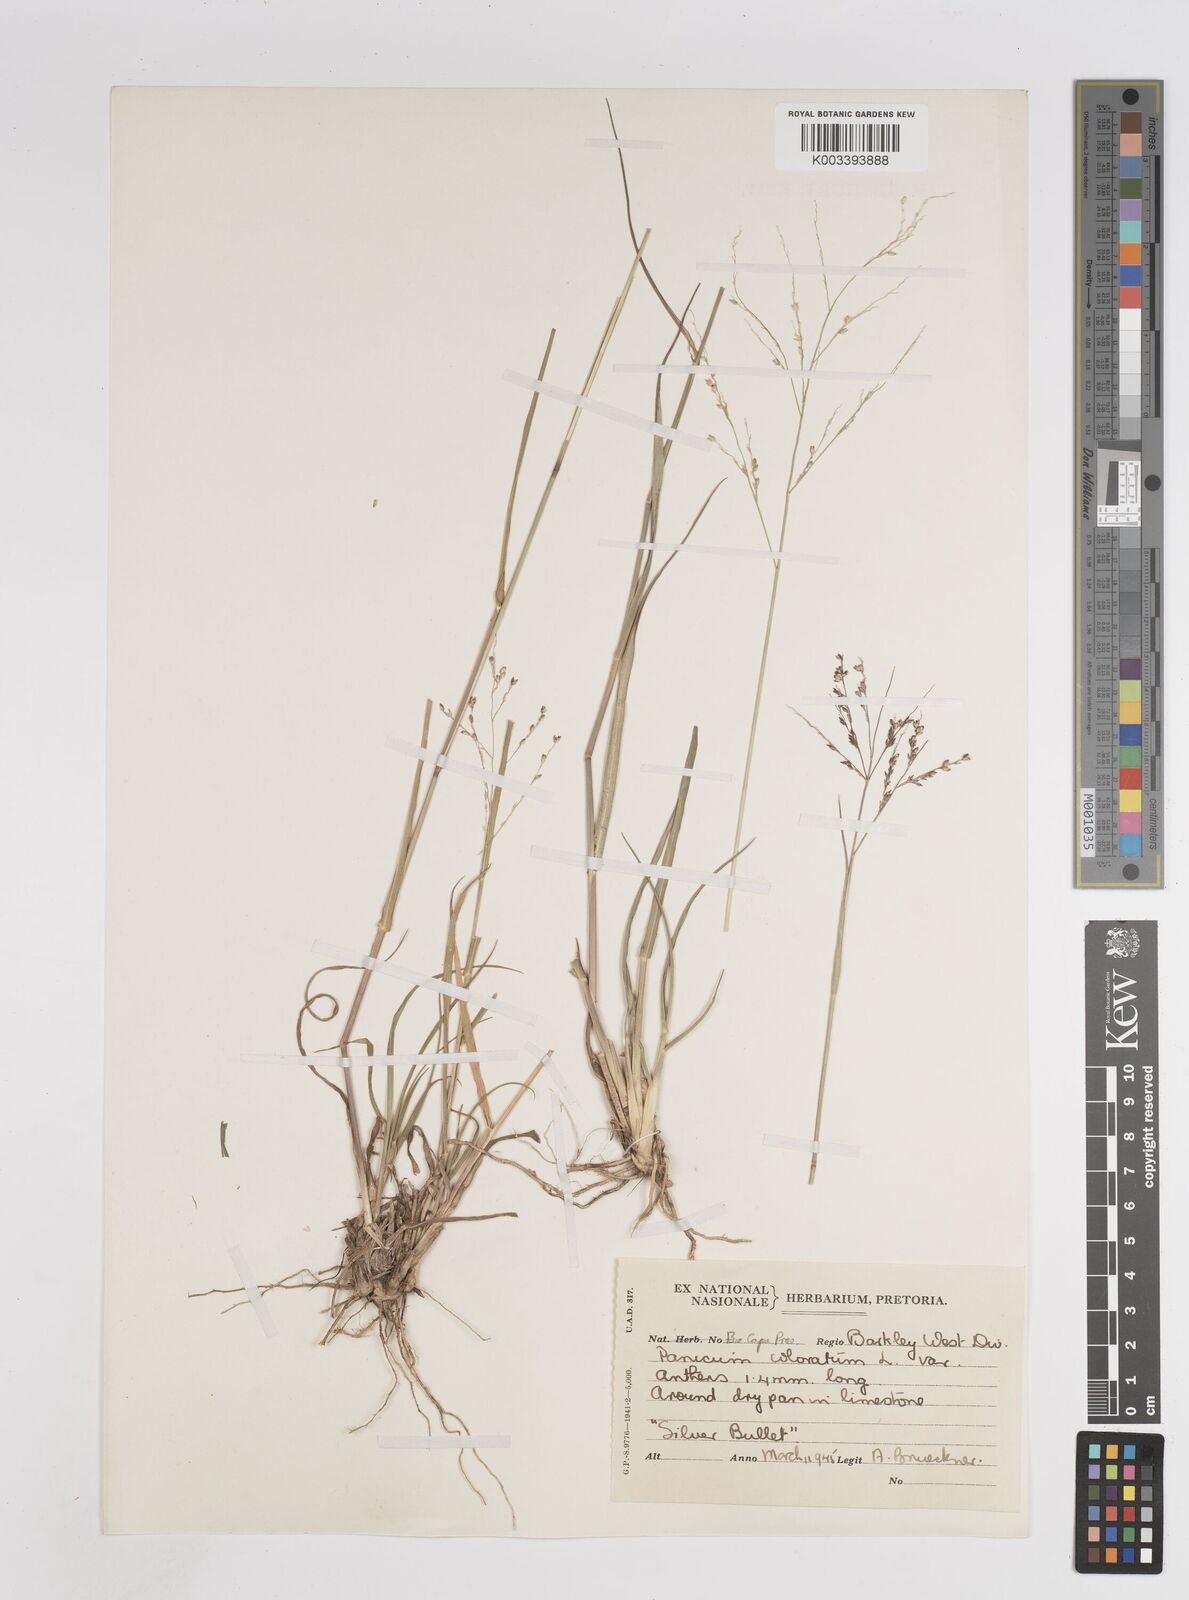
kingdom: Plantae
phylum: Tracheophyta
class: Liliopsida
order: Poales
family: Poaceae
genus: Panicum
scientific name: Panicum
